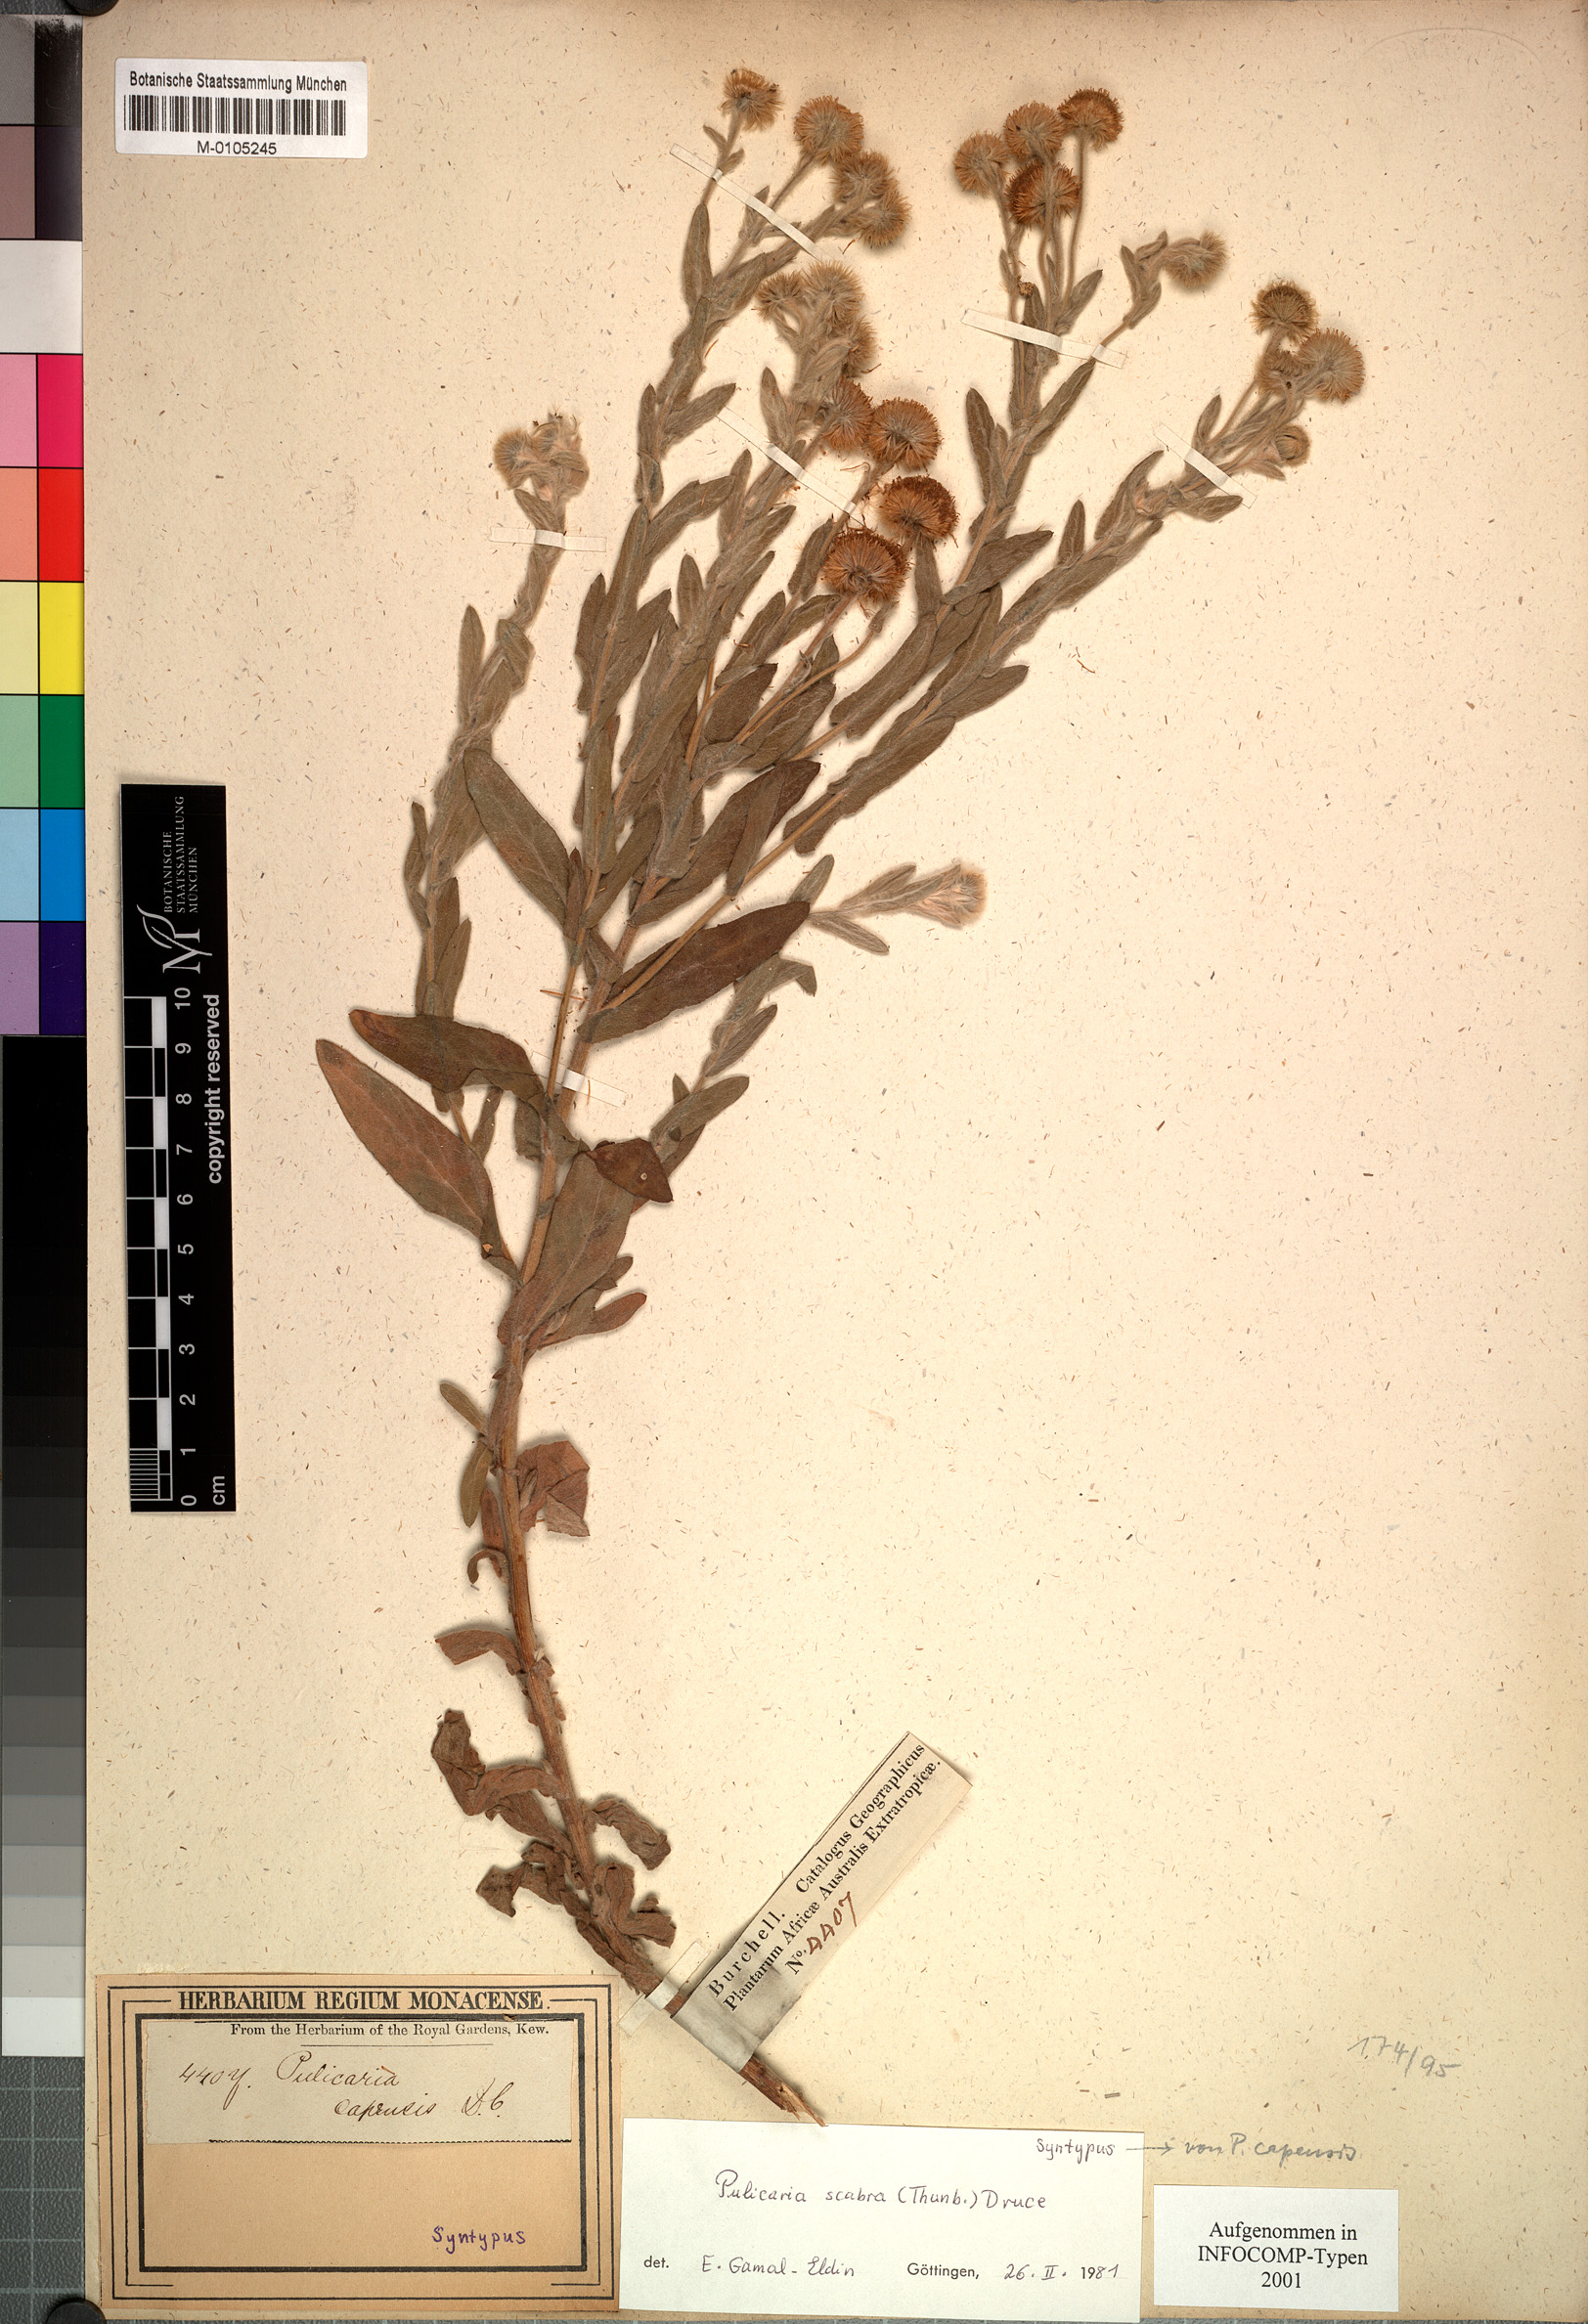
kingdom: Plantae
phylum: Tracheophyta
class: Magnoliopsida
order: Asterales
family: Asteraceae
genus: Pulicaria
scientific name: Pulicaria scabra
